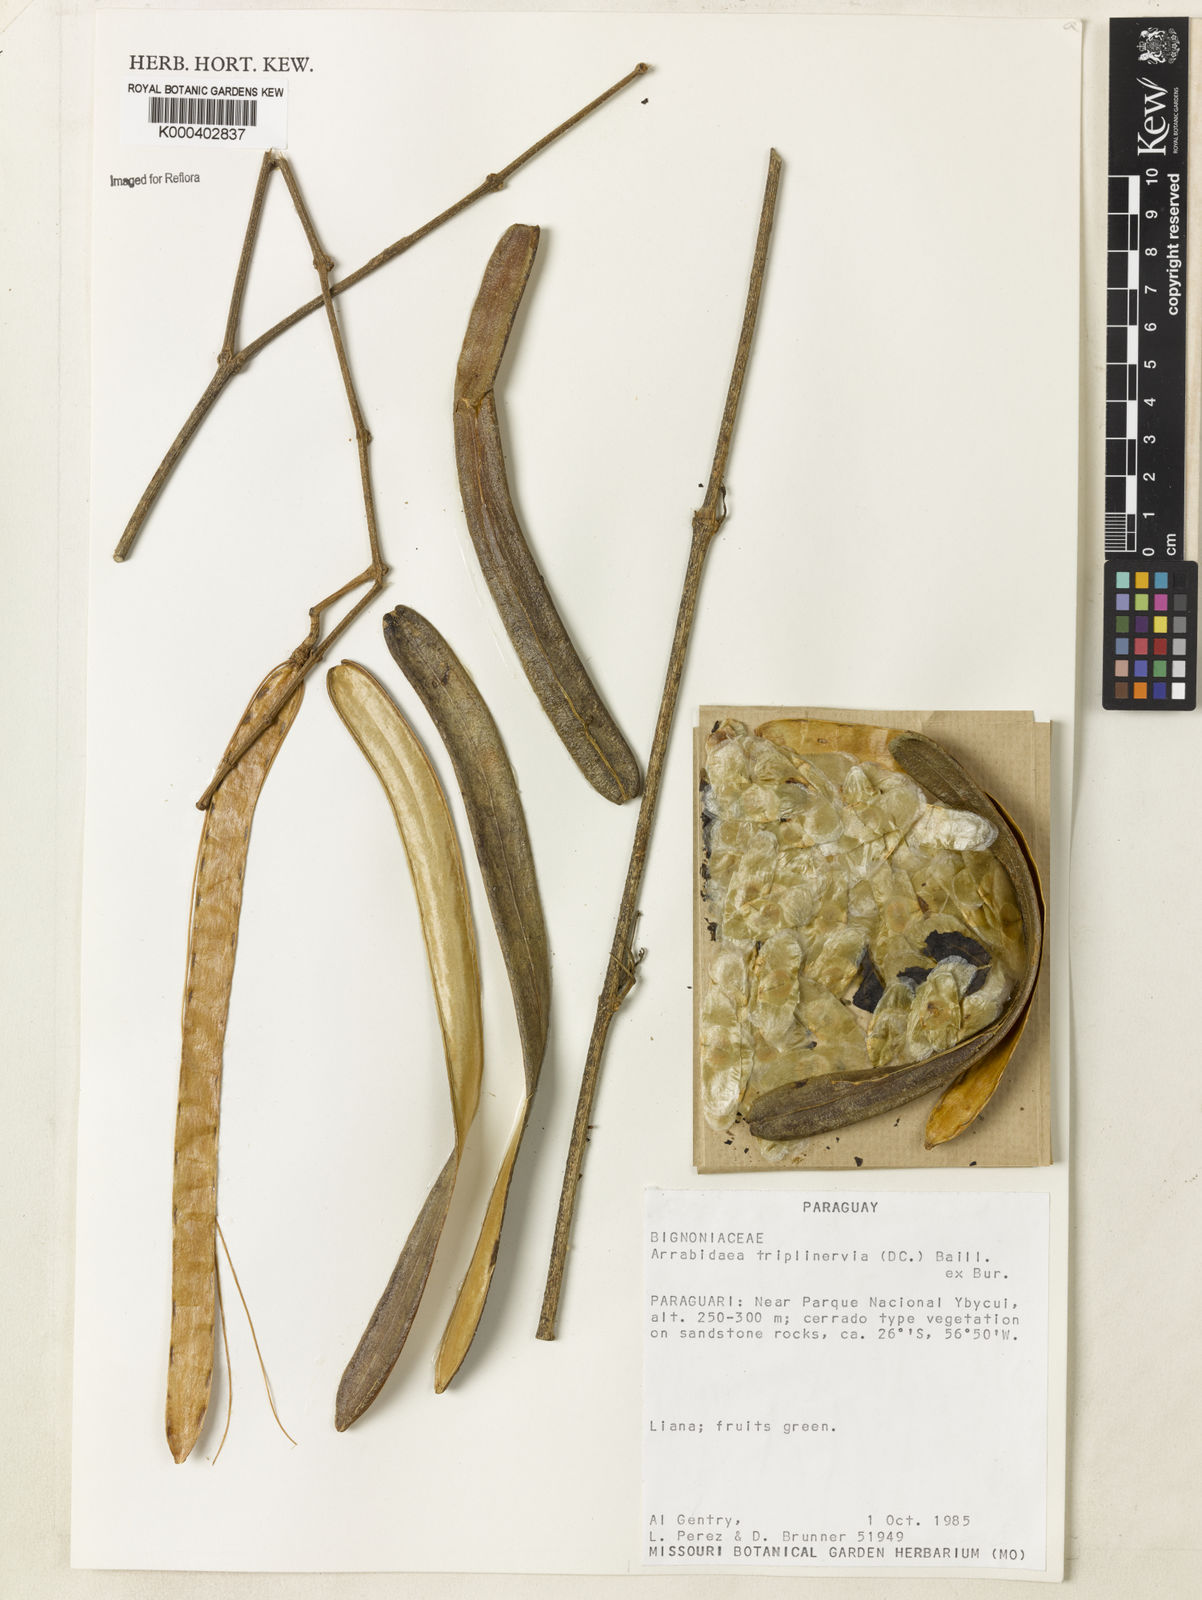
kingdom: Plantae
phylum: Tracheophyta
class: Magnoliopsida
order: Lamiales
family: Bignoniaceae
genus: Fridericia
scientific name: Fridericia triplinervia
